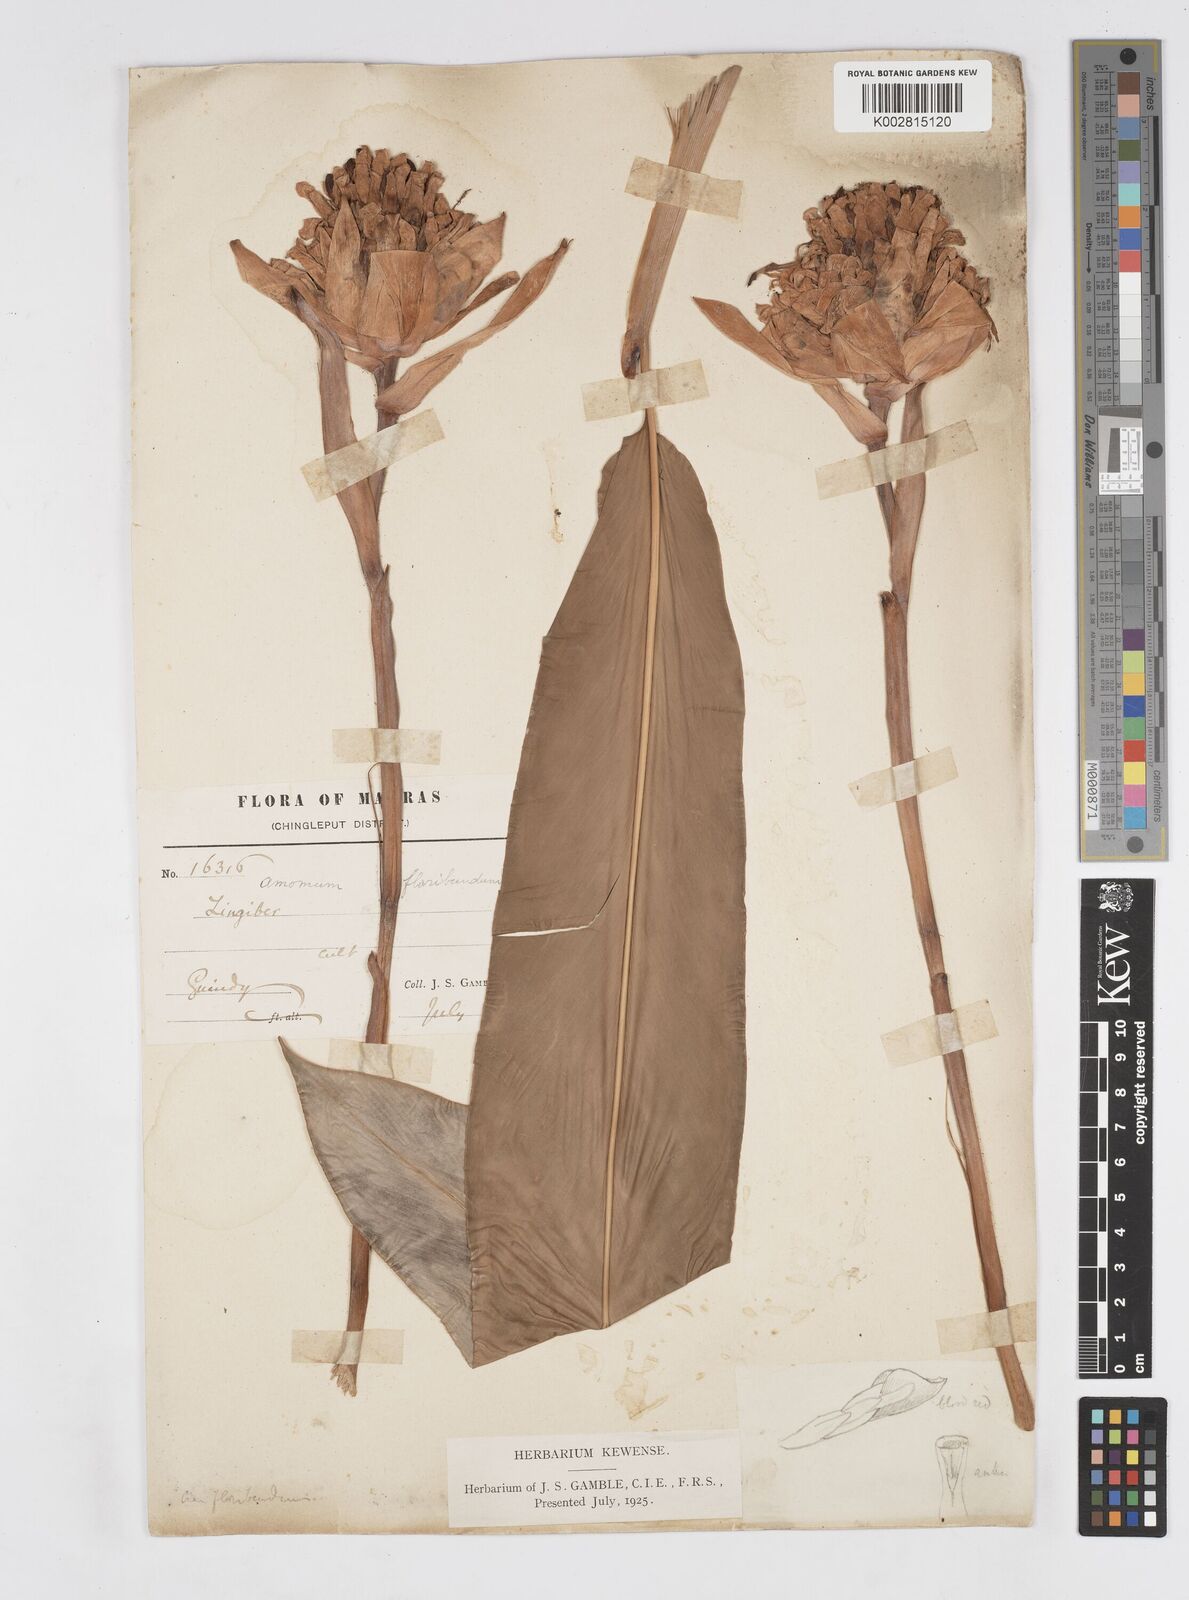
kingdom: Plantae
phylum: Tracheophyta
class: Liliopsida
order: Zingiberales
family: Zingiberaceae
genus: Alpinia
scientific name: Alpinia abundiflora
